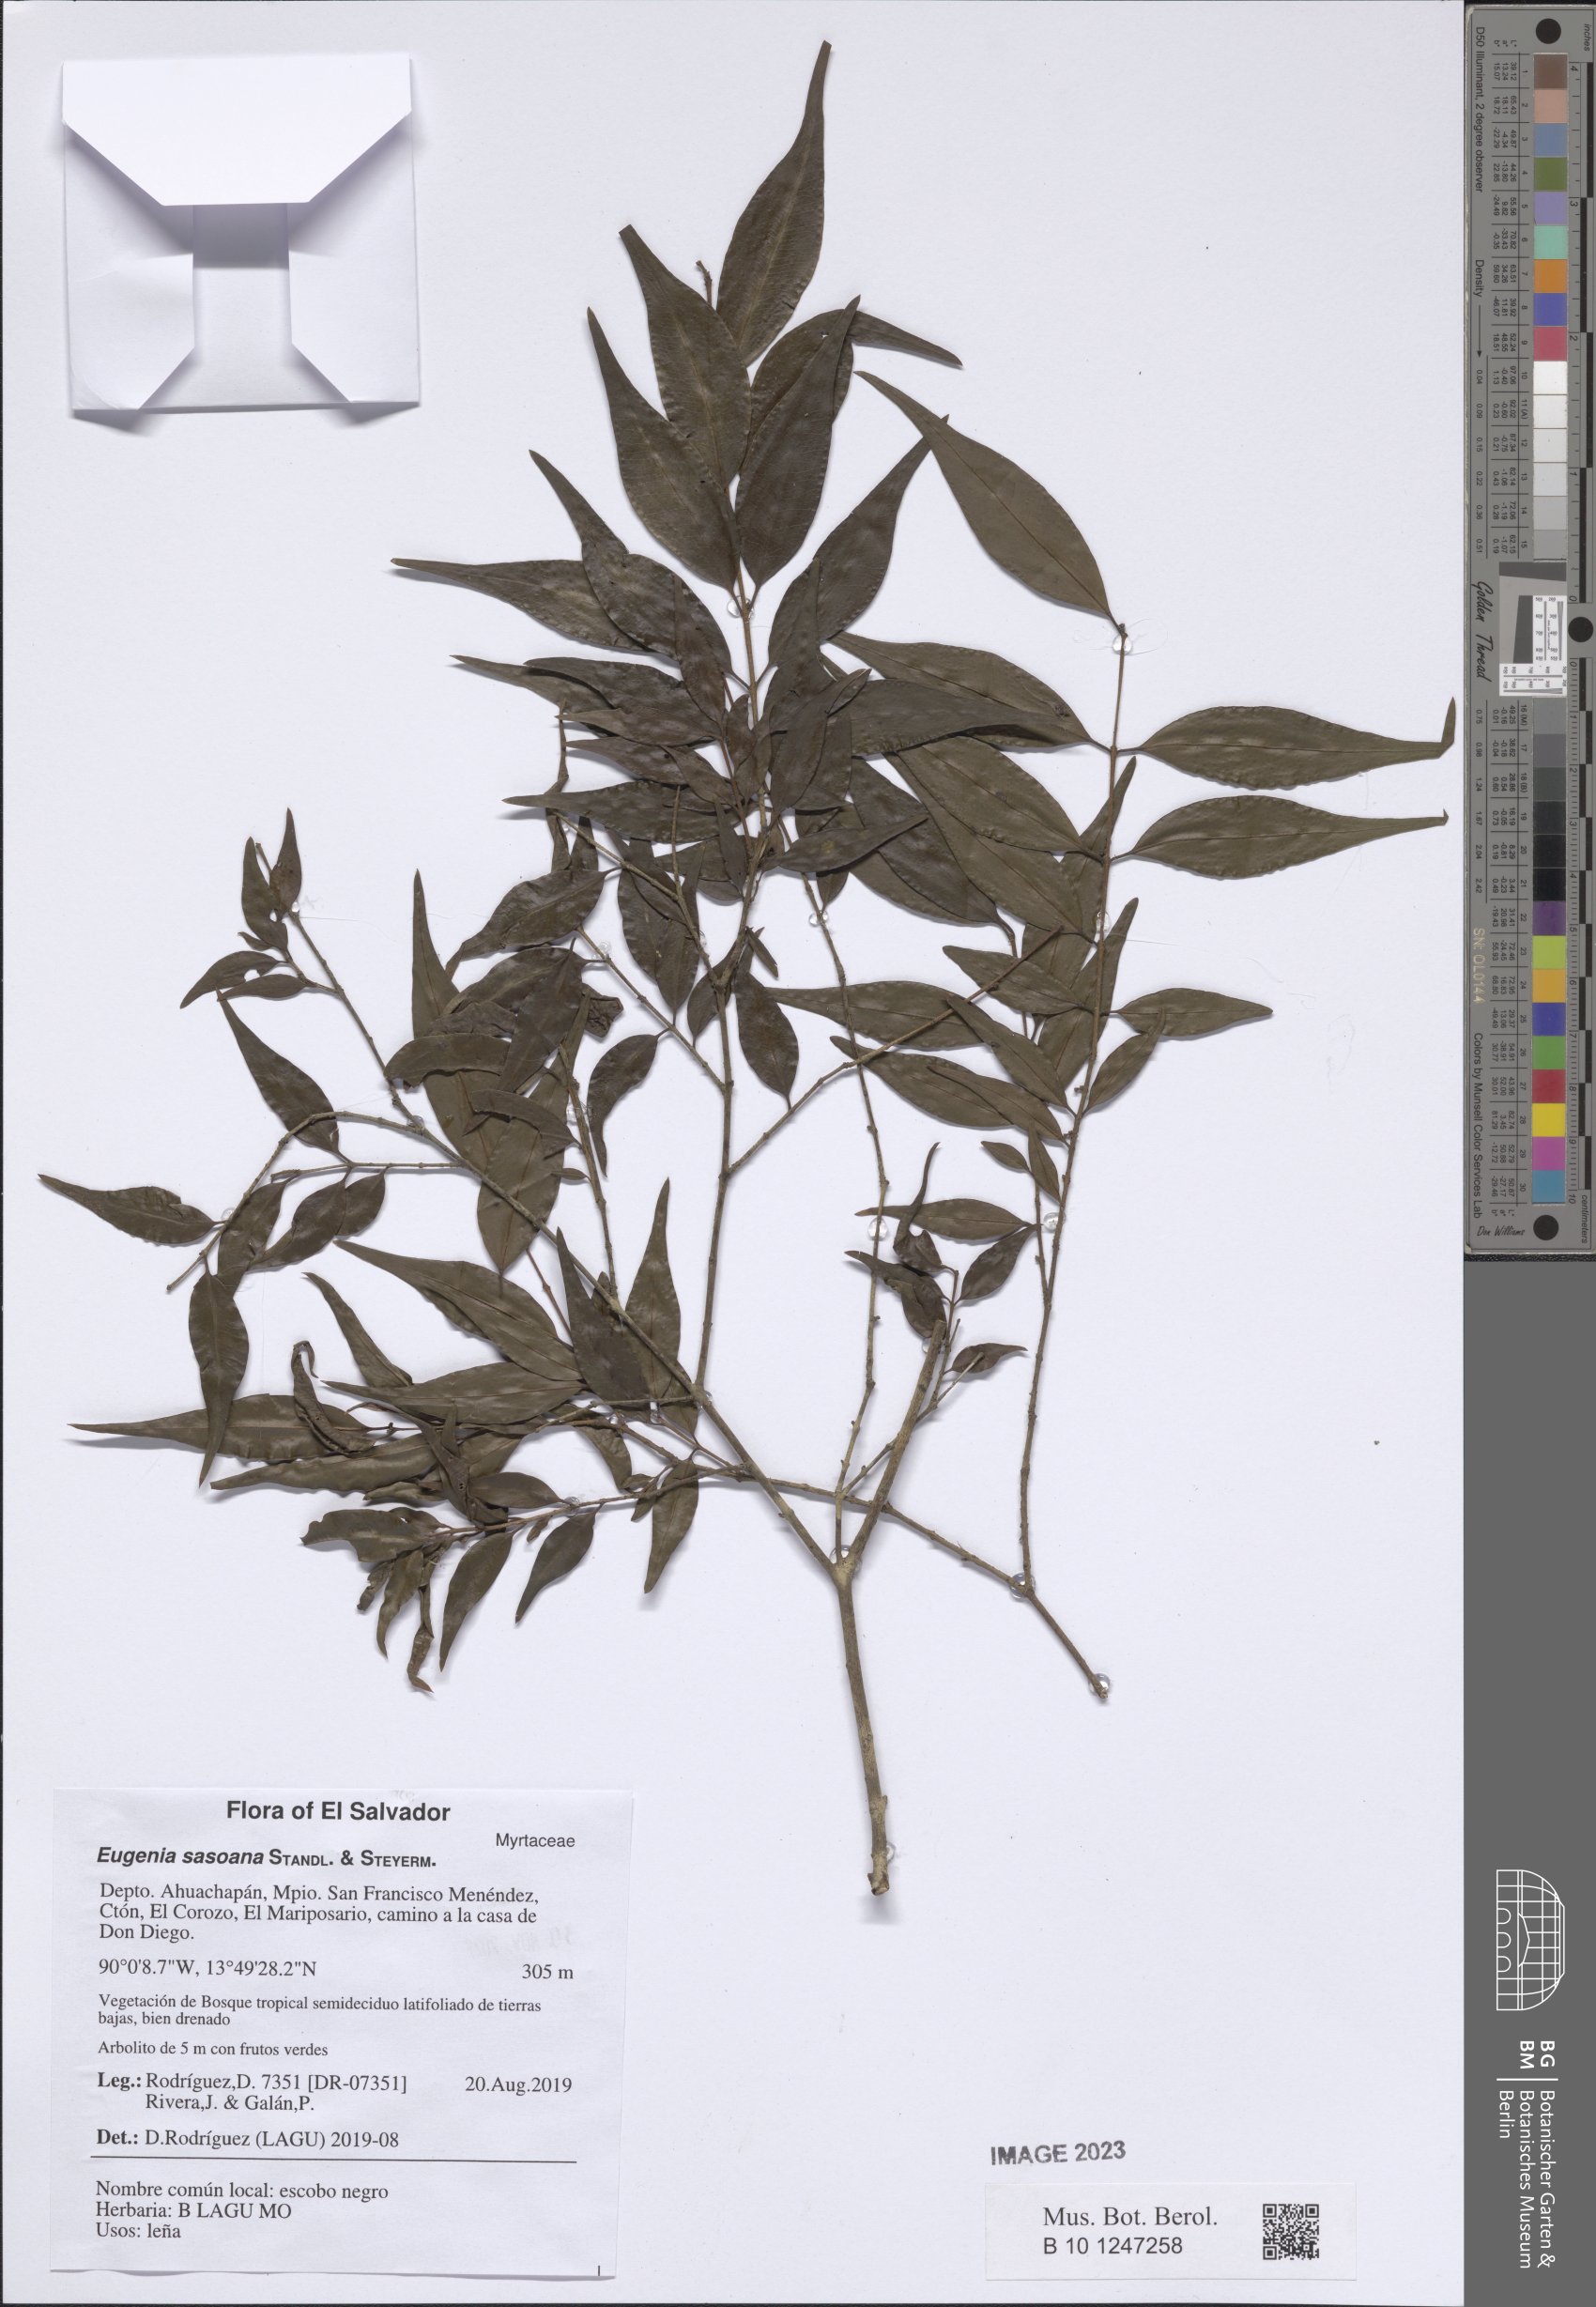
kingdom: Plantae
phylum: Tracheophyta
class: Magnoliopsida
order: Myrtales
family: Myrtaceae
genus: Eugenia
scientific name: Eugenia sasoana
